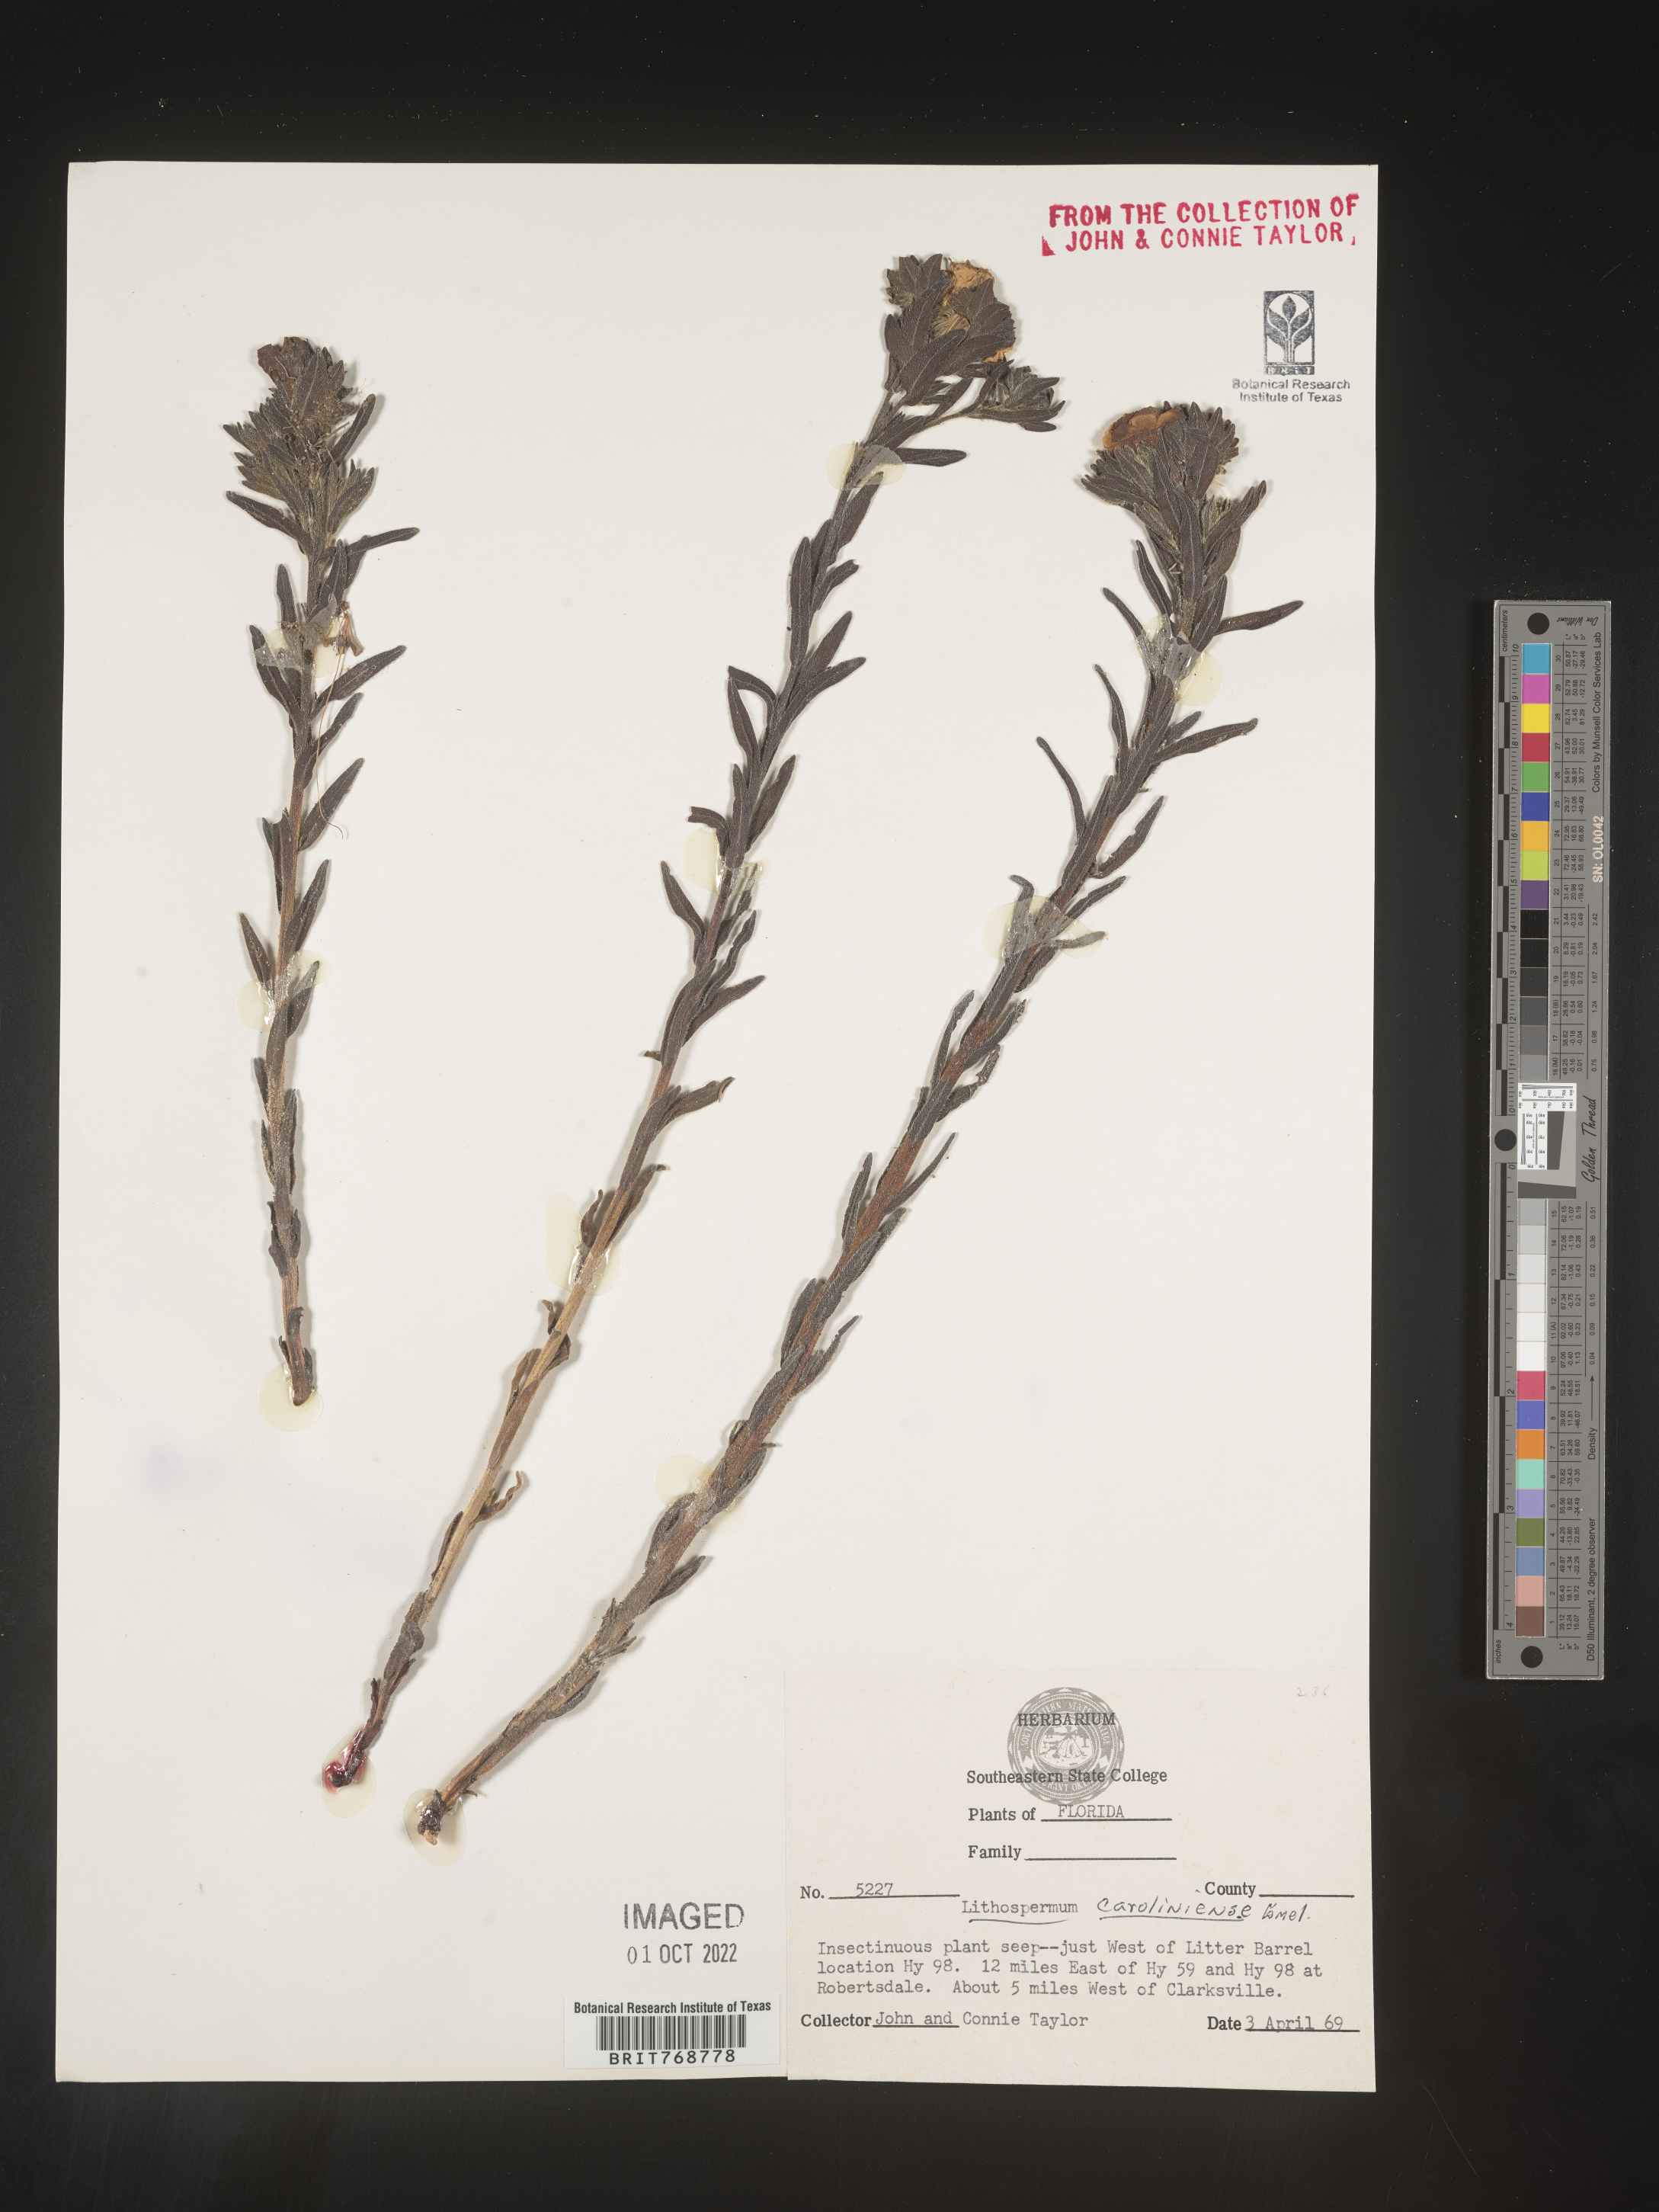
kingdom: Plantae
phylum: Tracheophyta
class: Magnoliopsida
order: Boraginales
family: Boraginaceae
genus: Lithospermum
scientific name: Lithospermum caroliniense
